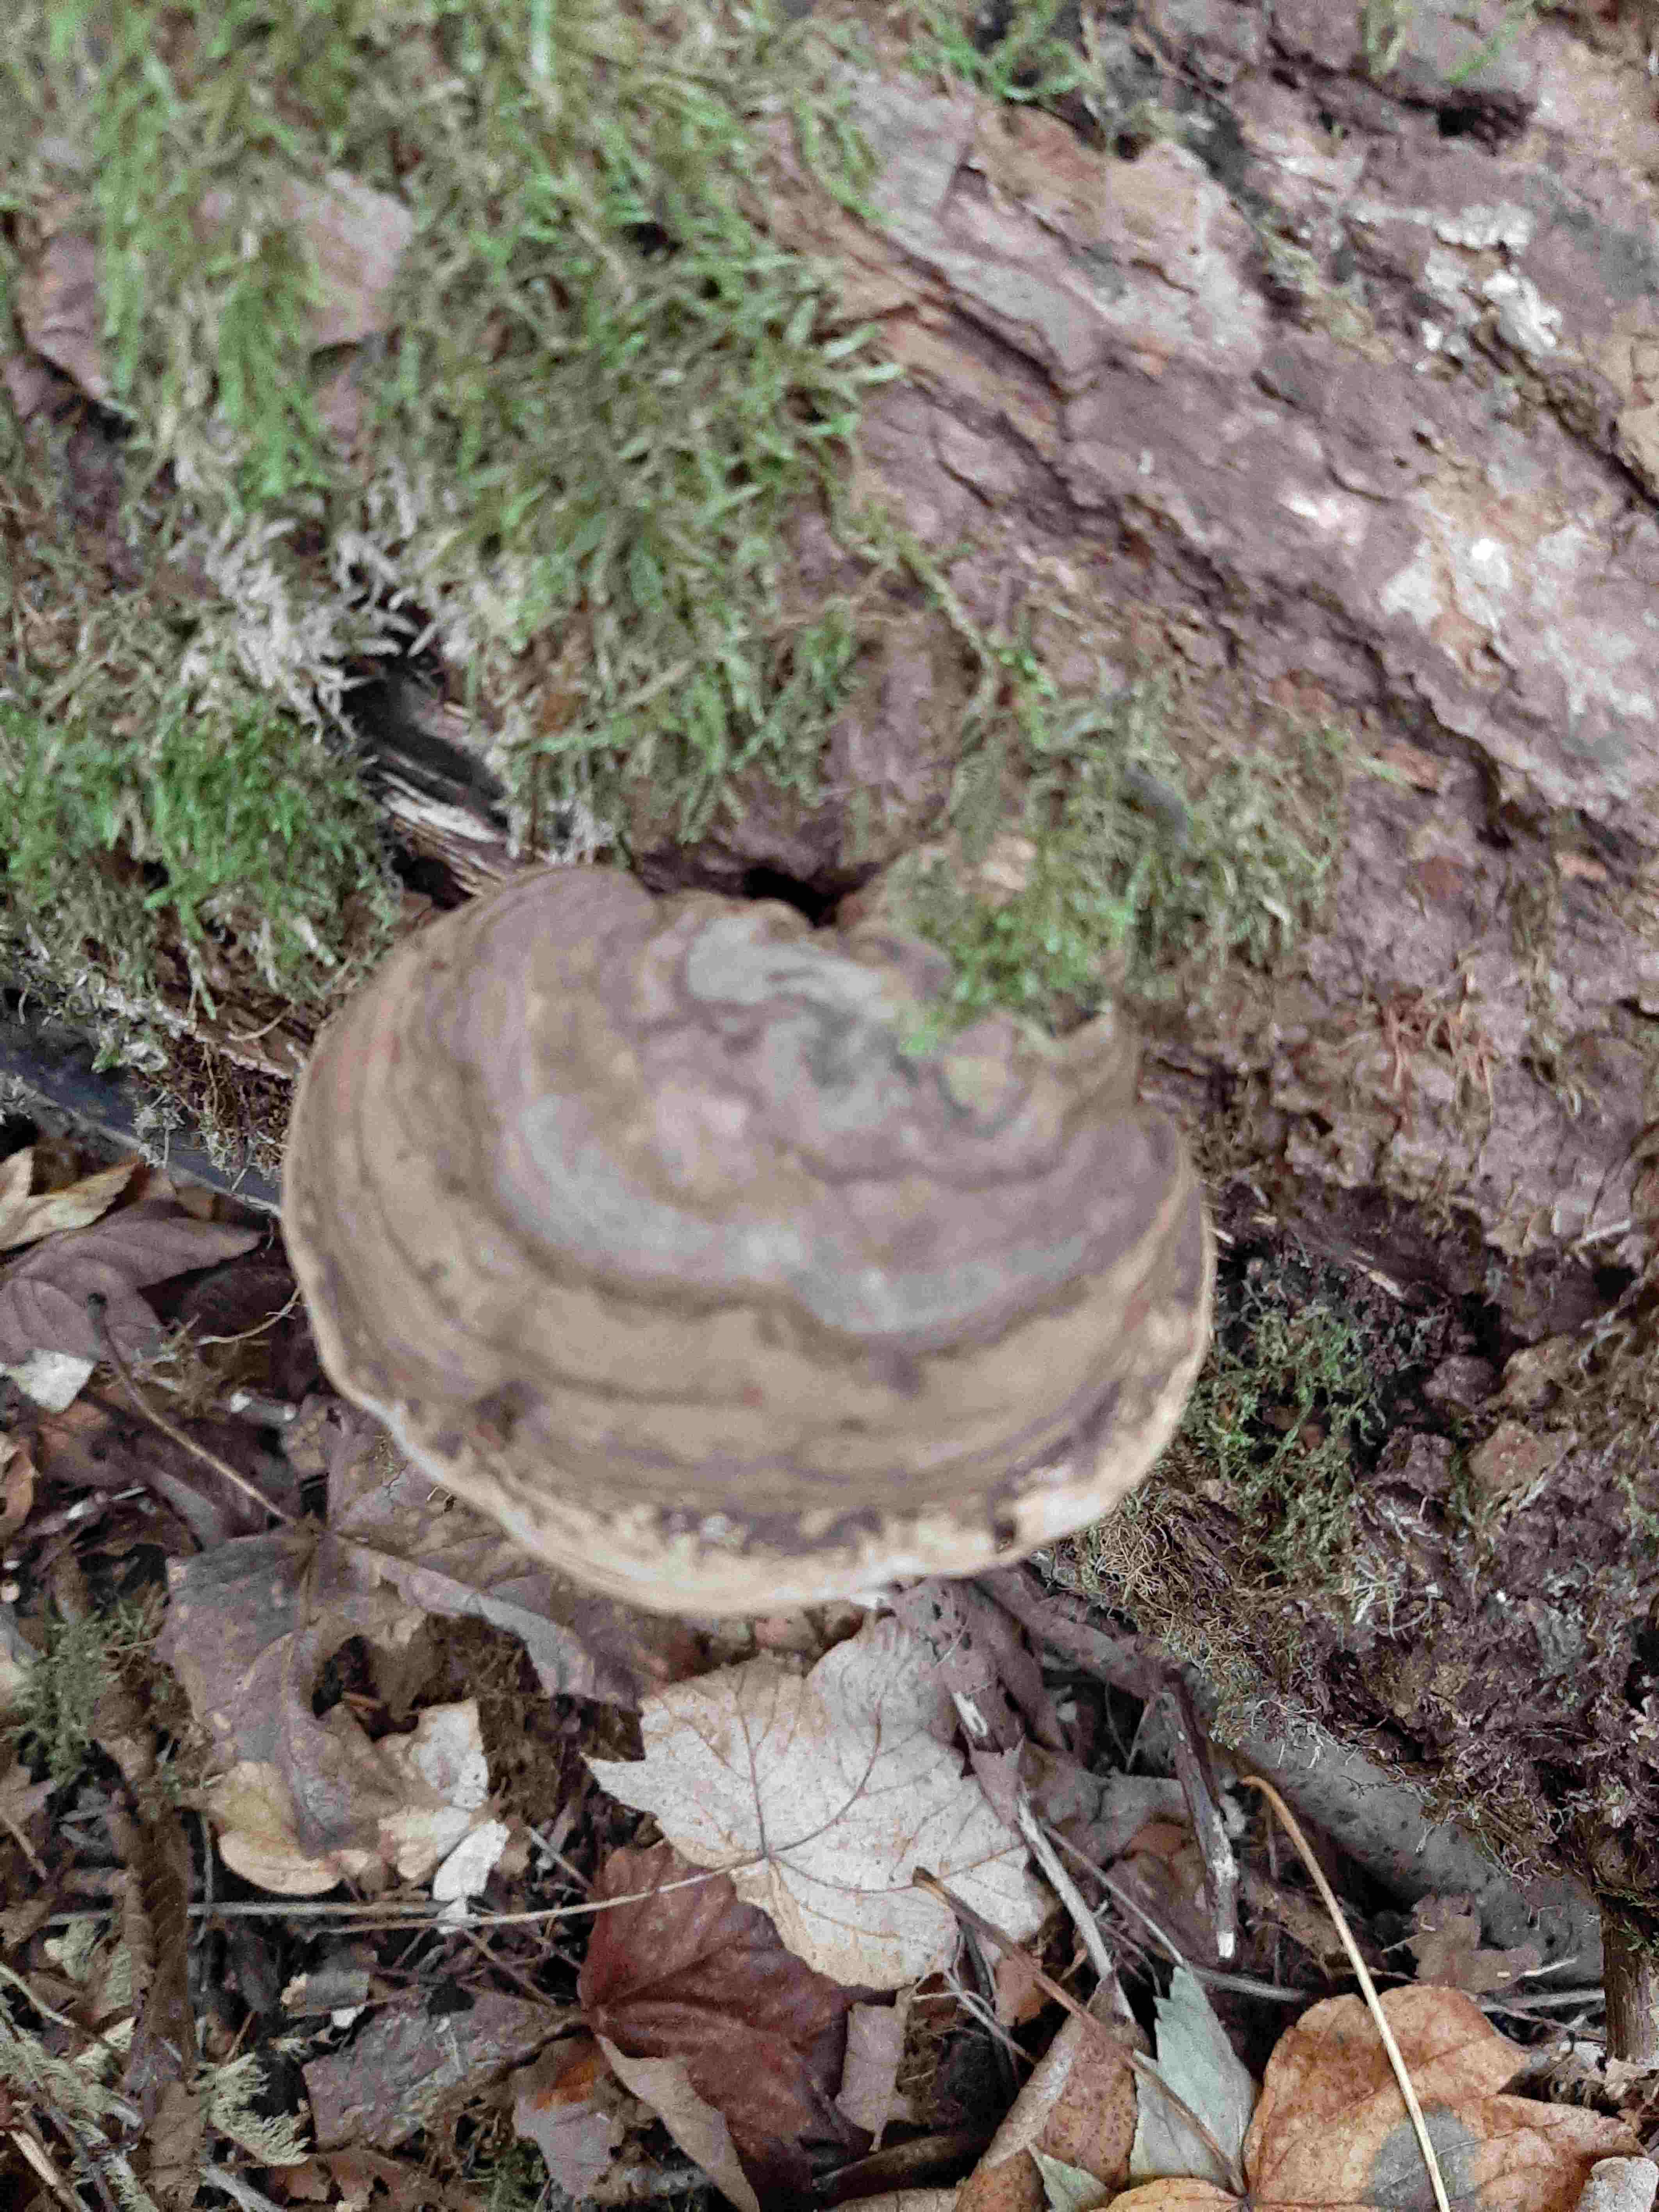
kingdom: Fungi
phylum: Basidiomycota
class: Agaricomycetes
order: Polyporales
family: Polyporaceae
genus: Ganoderma
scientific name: Ganoderma applanatum
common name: flad lakporesvamp
